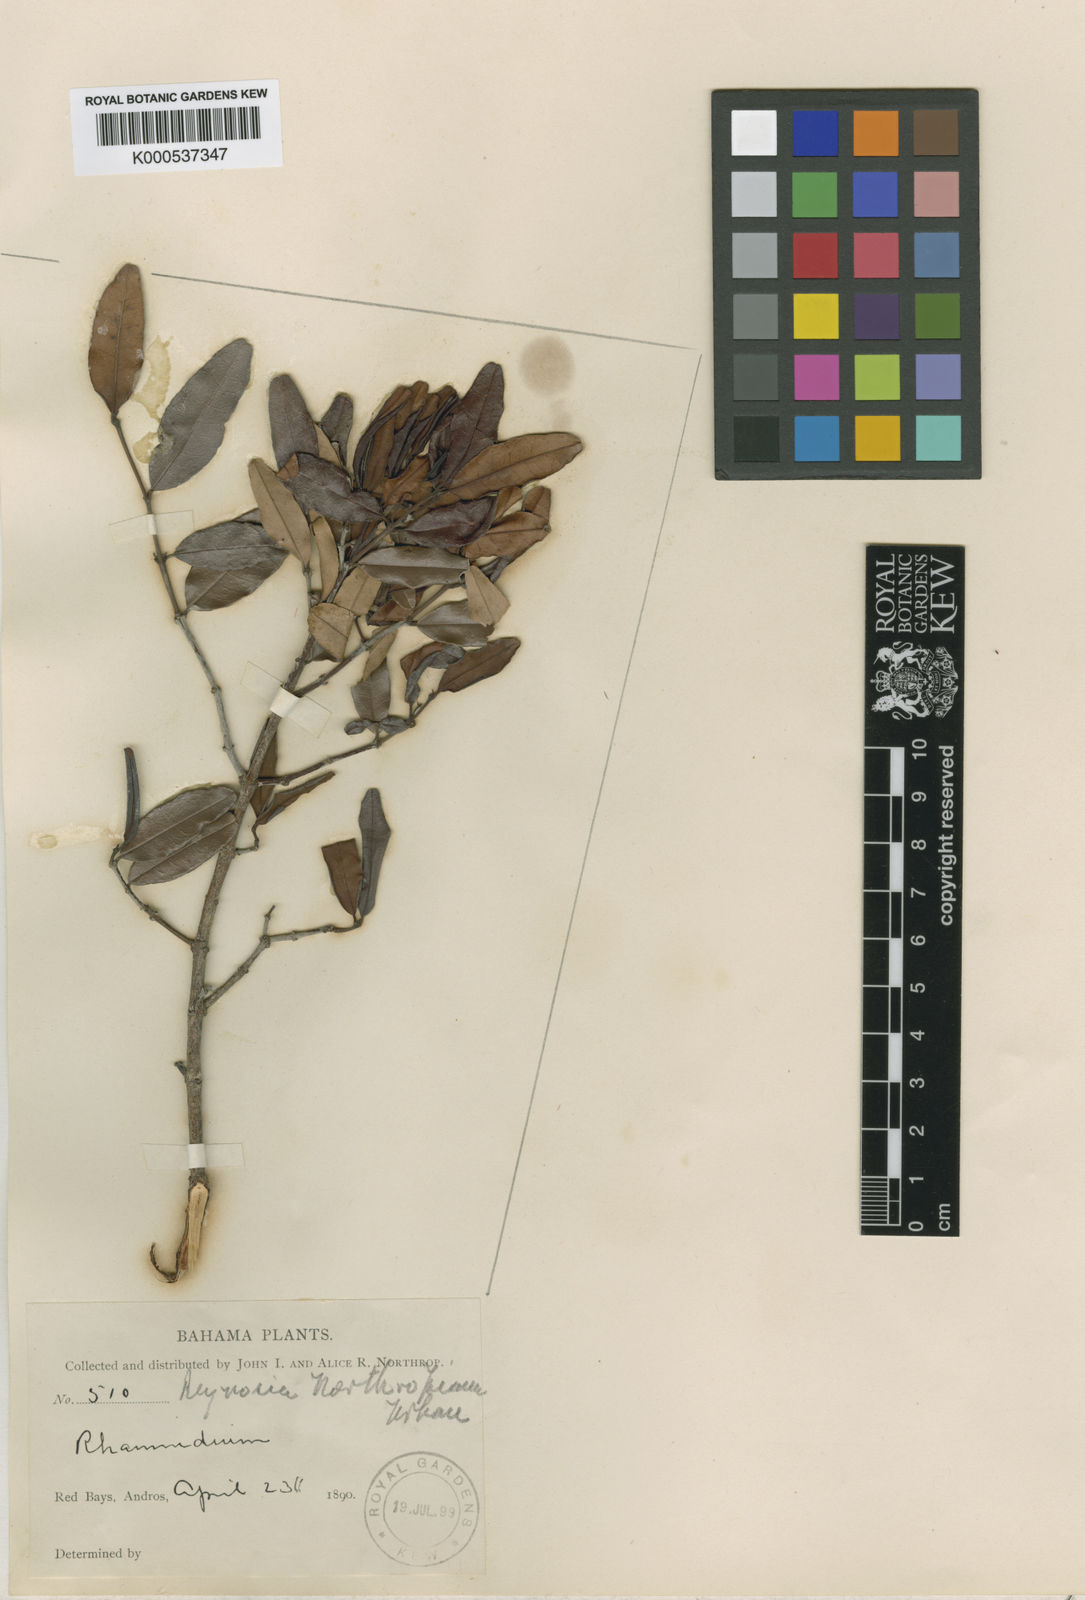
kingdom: Plantae
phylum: Tracheophyta
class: Magnoliopsida
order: Rosales
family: Rhamnaceae
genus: Auerodendron
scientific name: Auerodendron northropianum
